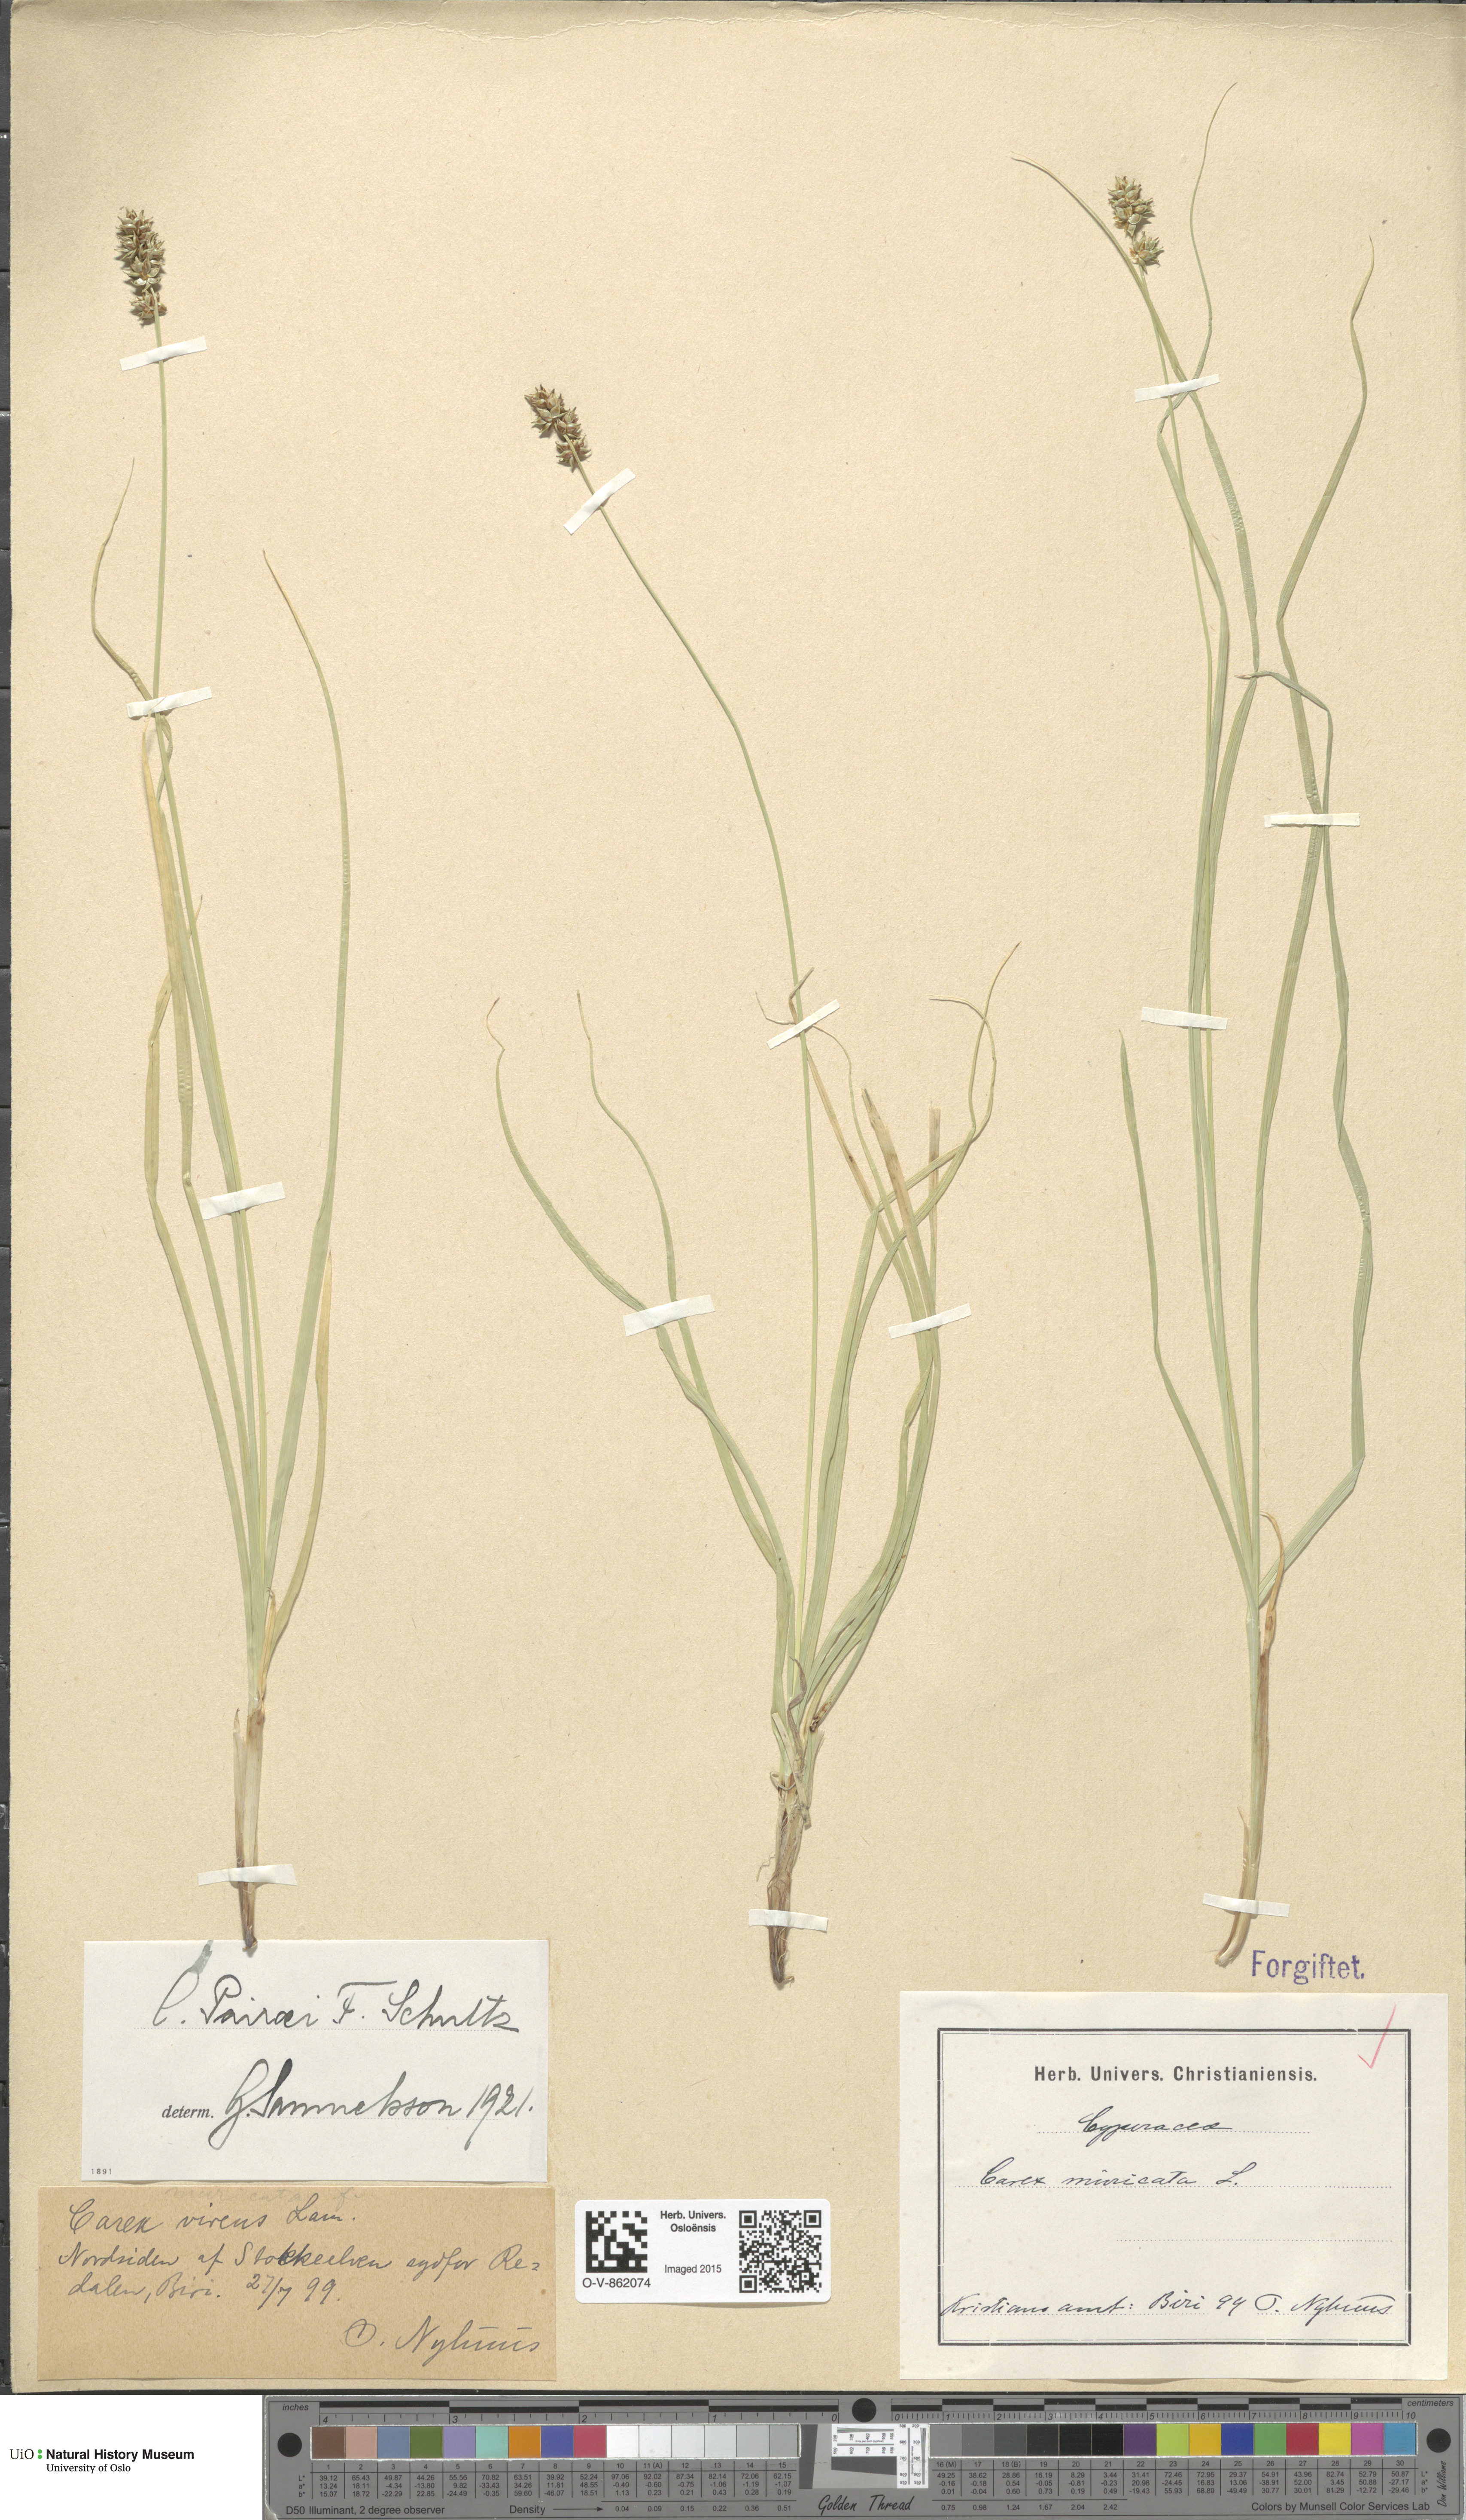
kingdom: Plantae
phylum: Tracheophyta
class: Liliopsida
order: Poales
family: Cyperaceae
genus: Carex
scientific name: Carex pairae
